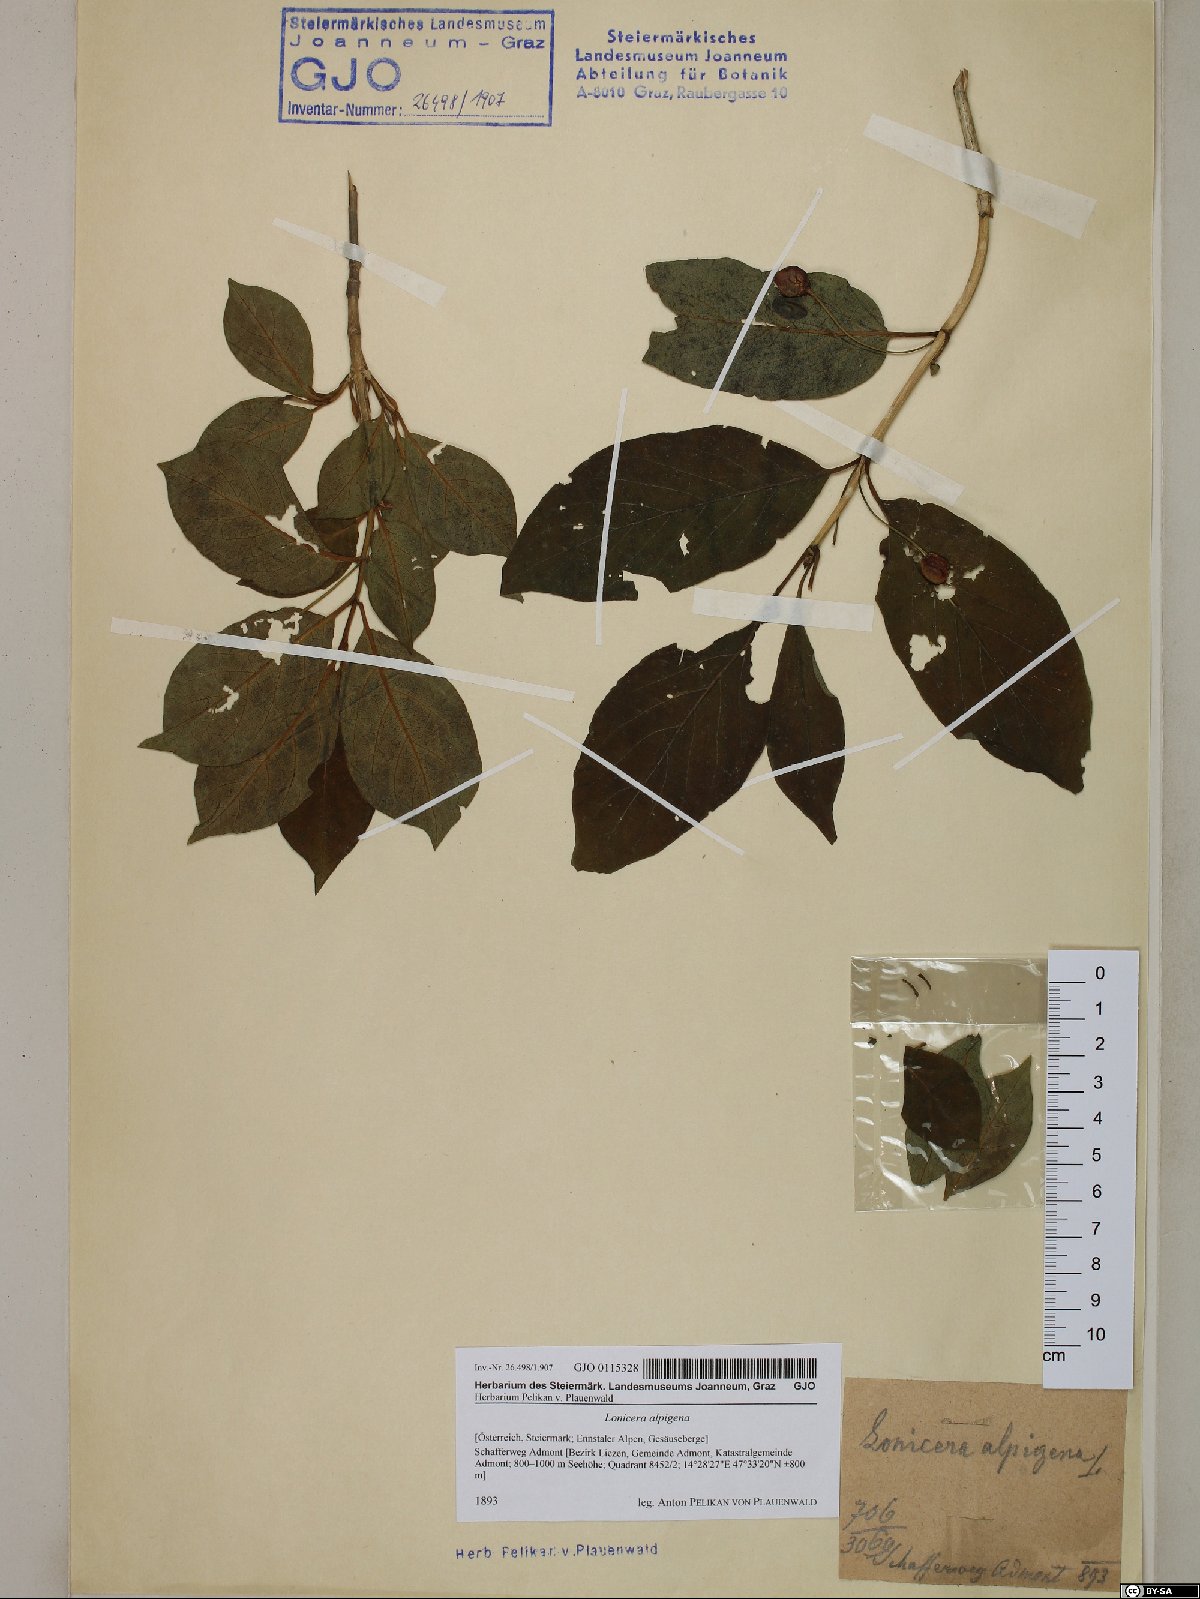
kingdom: Plantae
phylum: Tracheophyta
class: Magnoliopsida
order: Dipsacales
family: Caprifoliaceae
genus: Lonicera
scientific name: Lonicera alpigena
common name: Alpine honeysuckle
